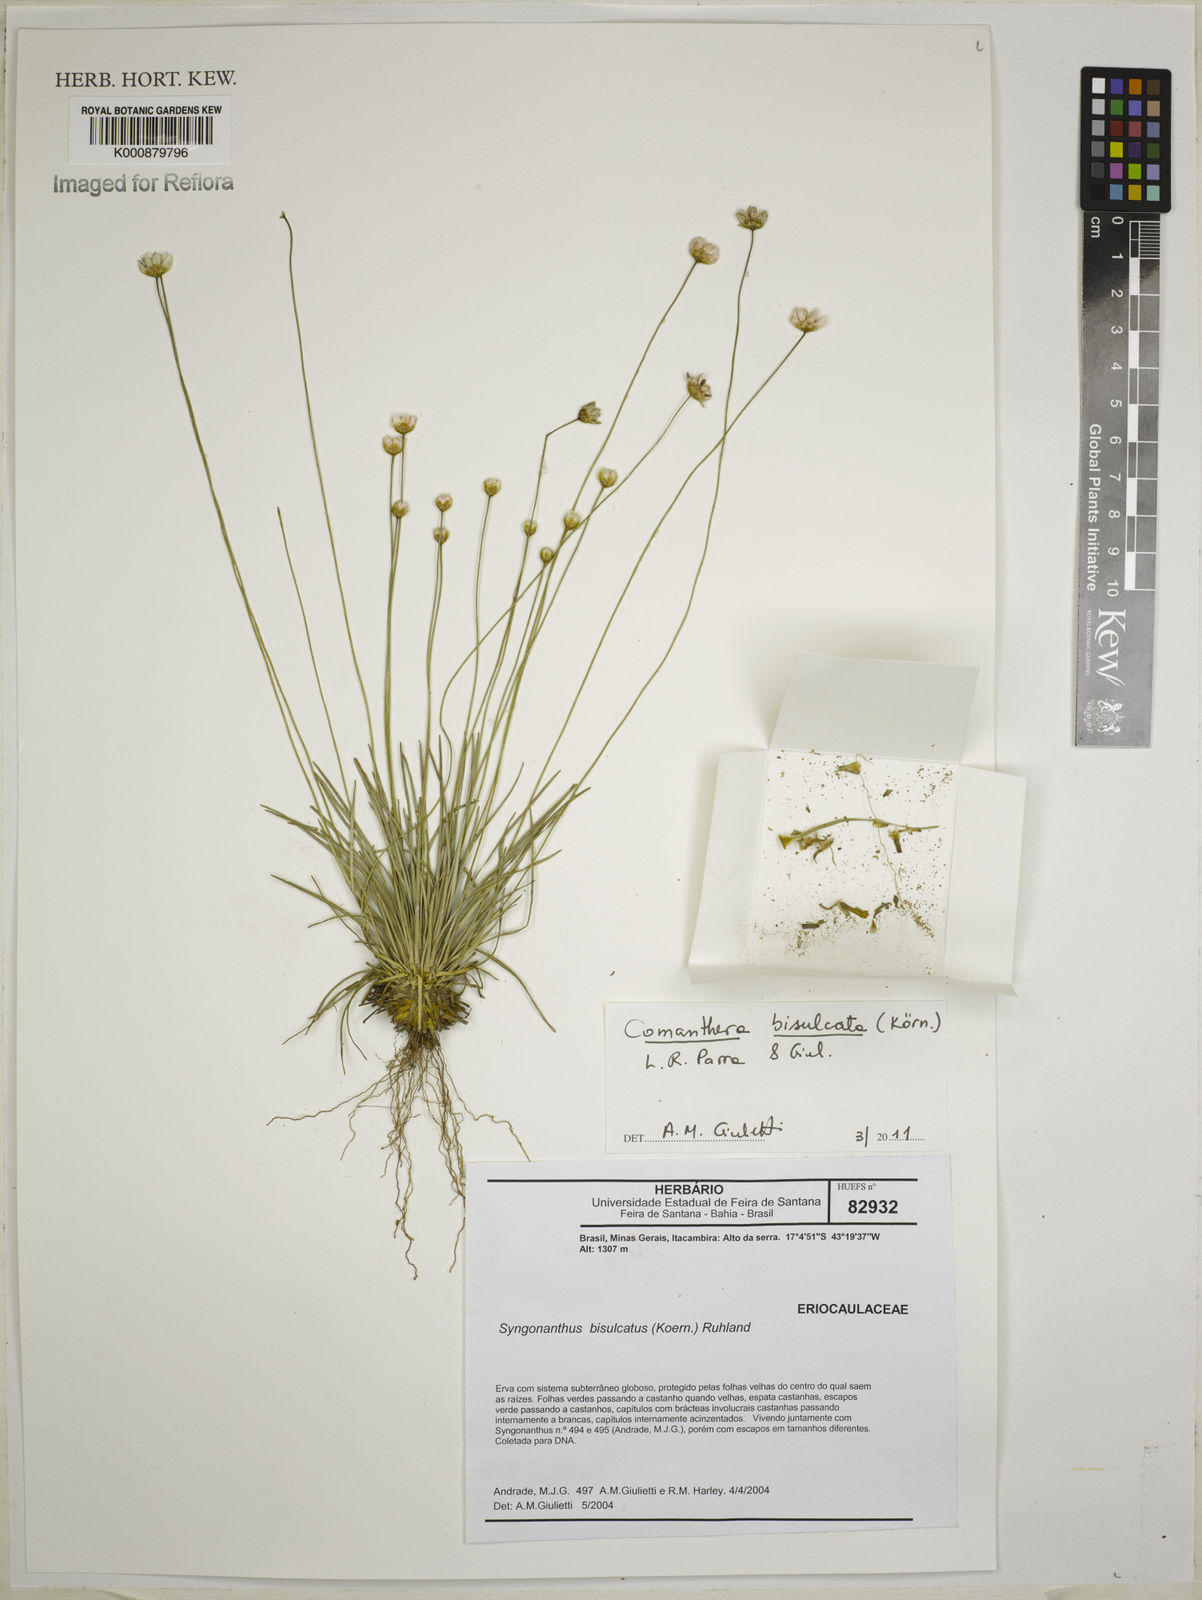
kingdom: Plantae
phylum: Tracheophyta
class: Liliopsida
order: Poales
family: Eriocaulaceae
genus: Comanthera
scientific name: Comanthera
